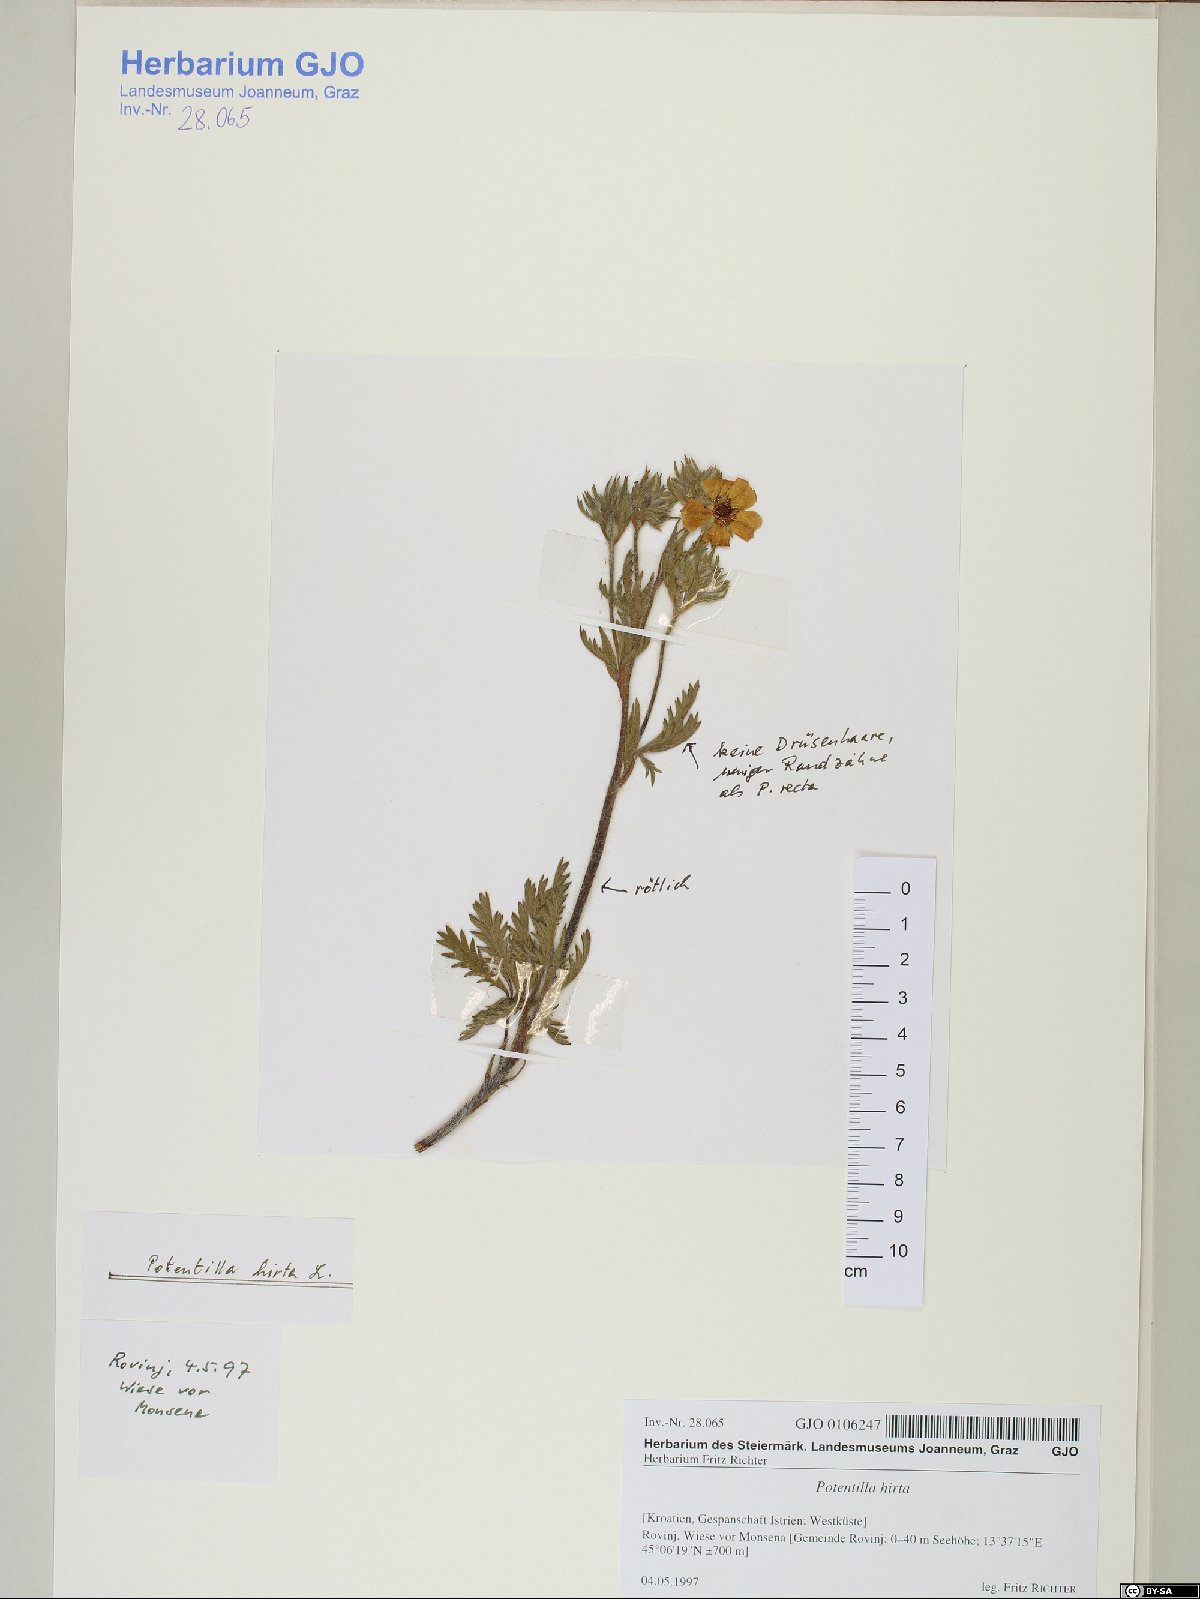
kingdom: Plantae
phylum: Tracheophyta
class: Magnoliopsida
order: Rosales
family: Rosaceae
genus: Potentilla
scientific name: Potentilla hirta
